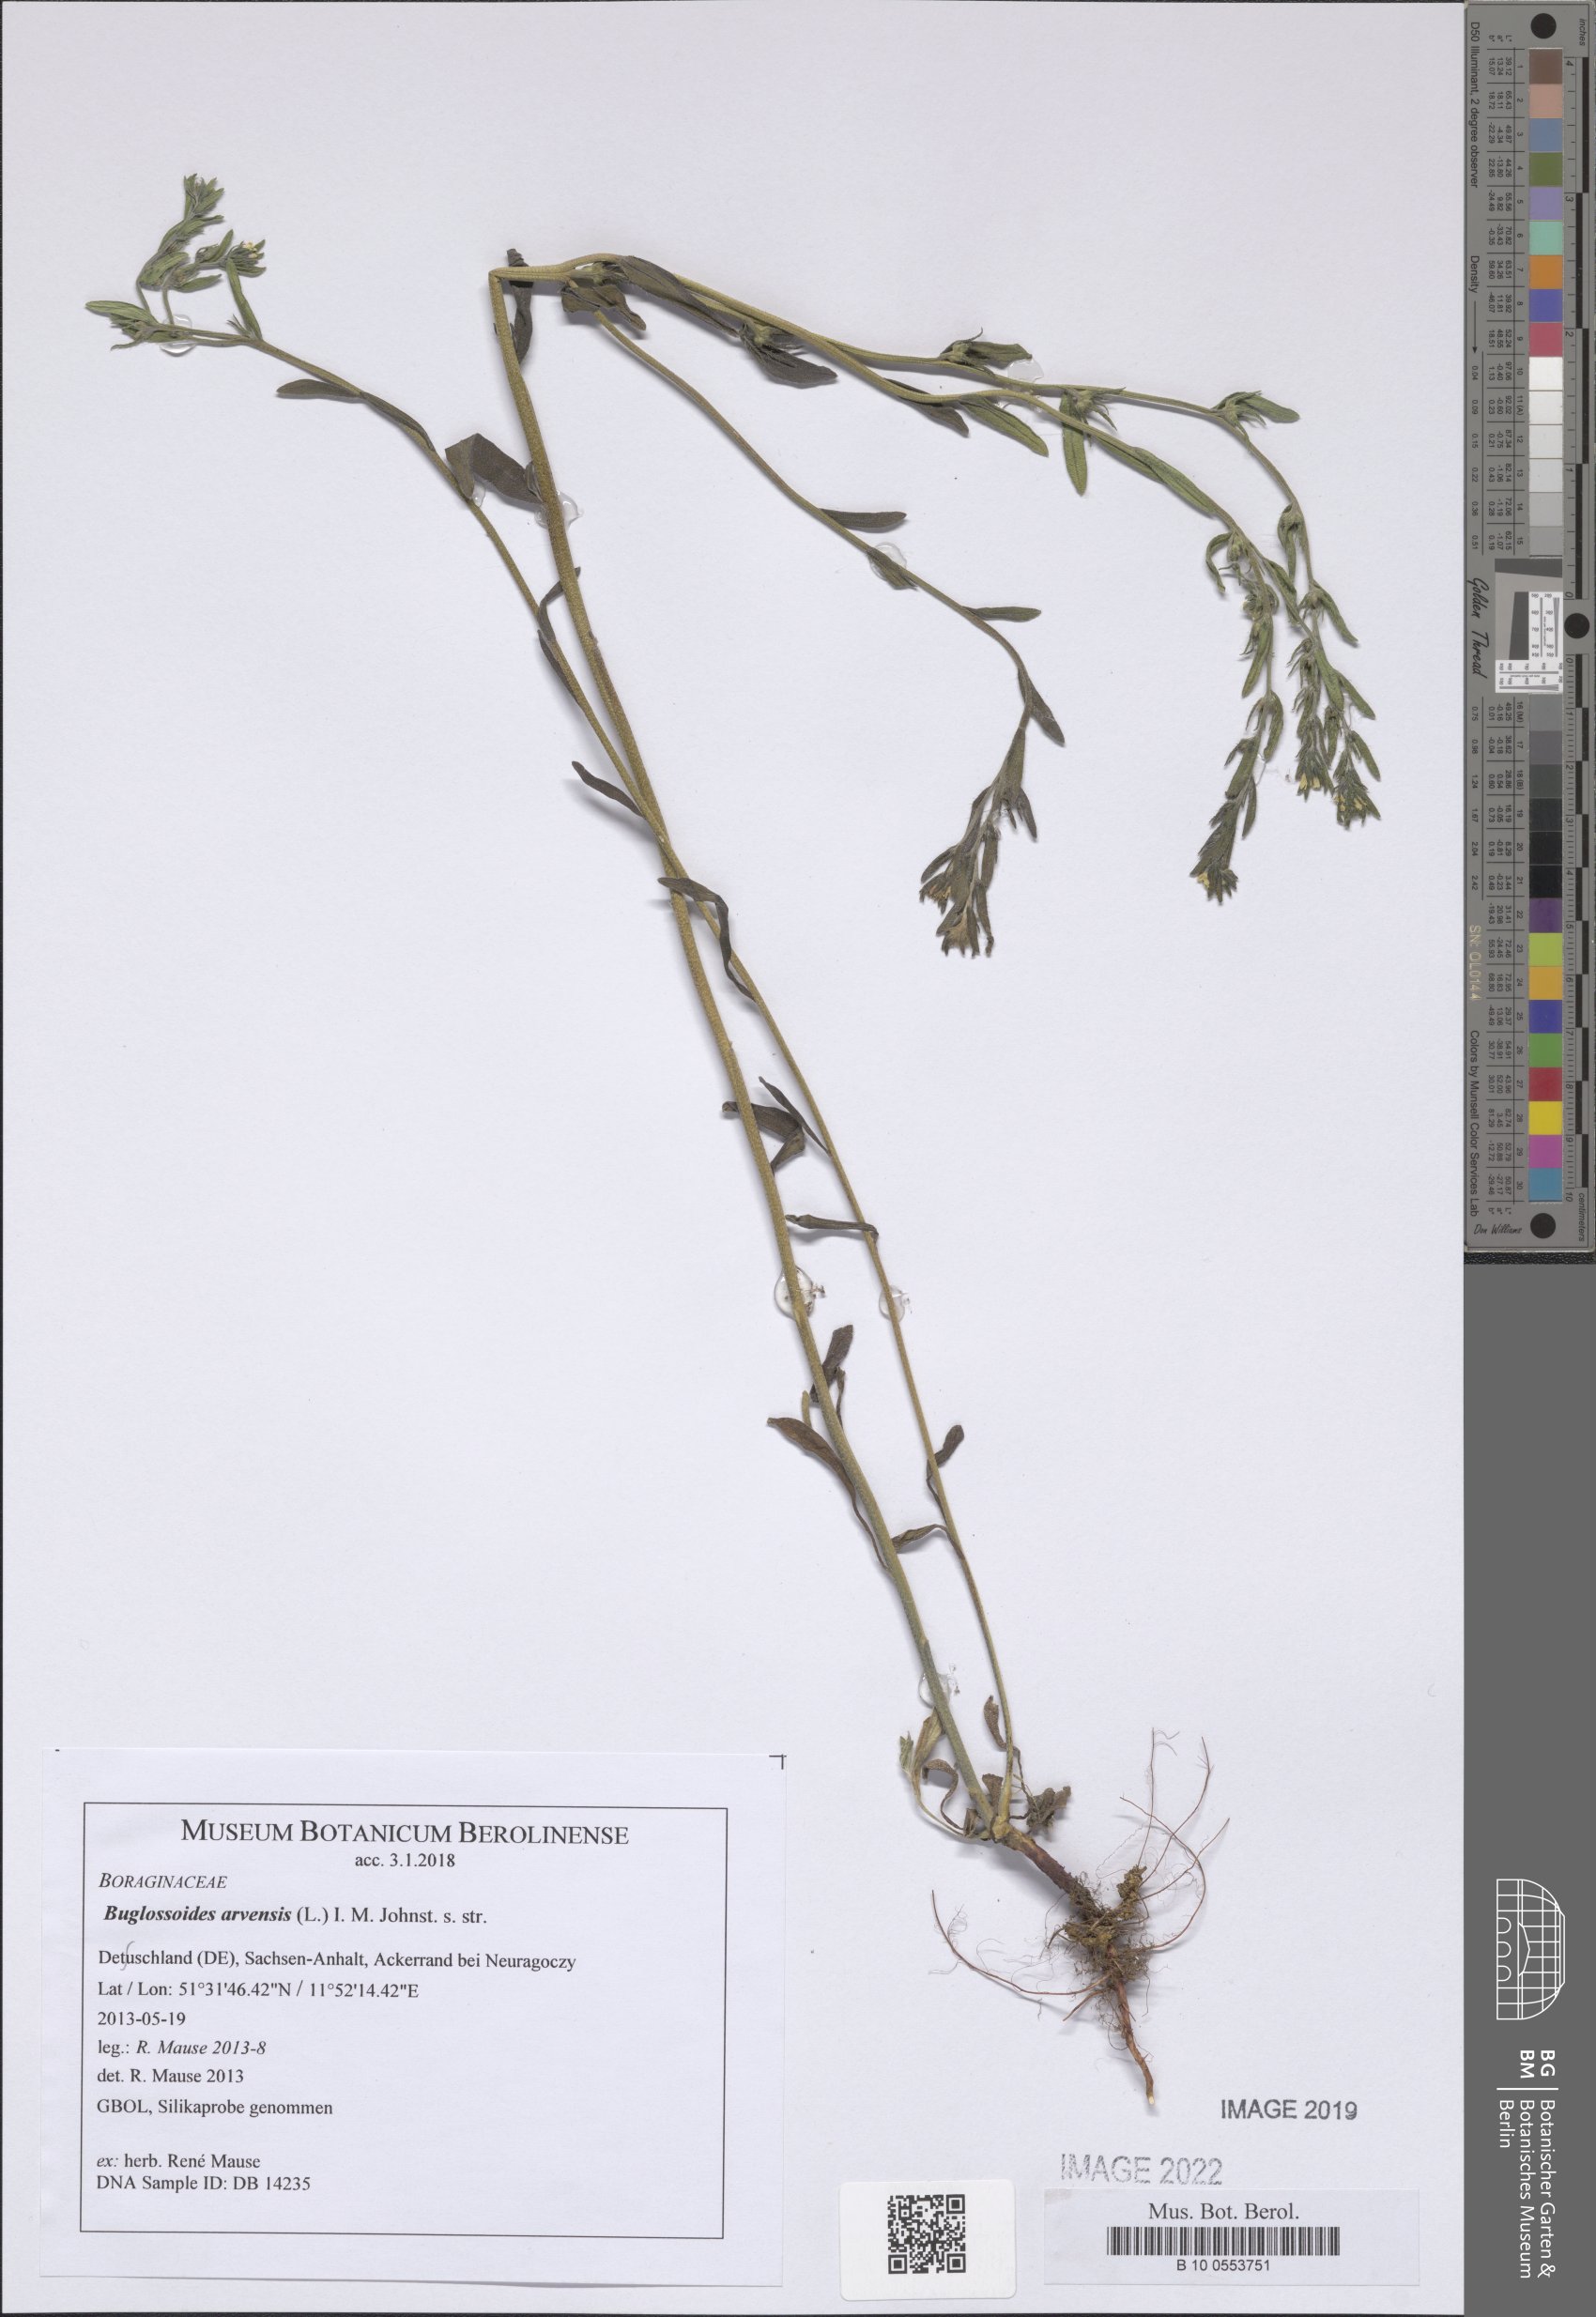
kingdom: Plantae
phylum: Tracheophyta
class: Magnoliopsida
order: Boraginales
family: Boraginaceae
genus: Buglossoides
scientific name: Buglossoides arvensis
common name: Corn gromwell
